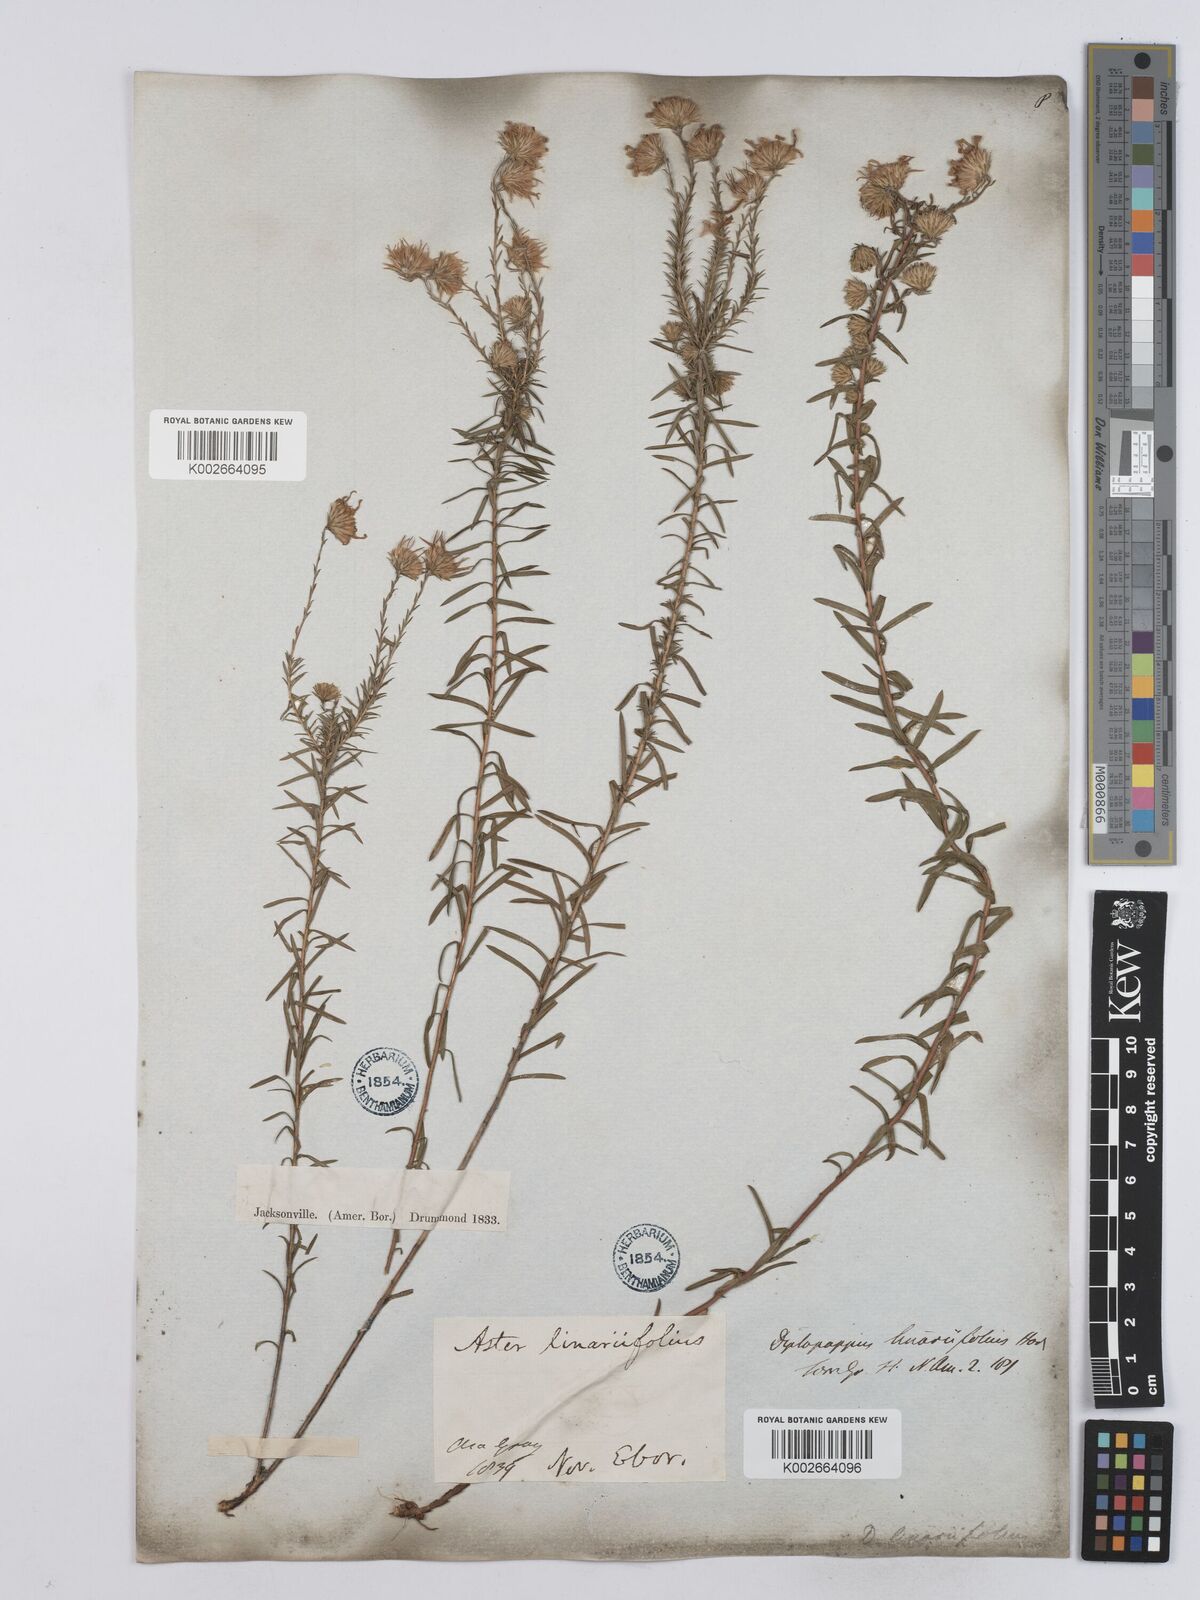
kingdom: Plantae
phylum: Tracheophyta
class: Magnoliopsida
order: Asterales
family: Asteraceae
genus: Ionactis
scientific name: Ionactis linariifolia
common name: Flax-leaf aster
